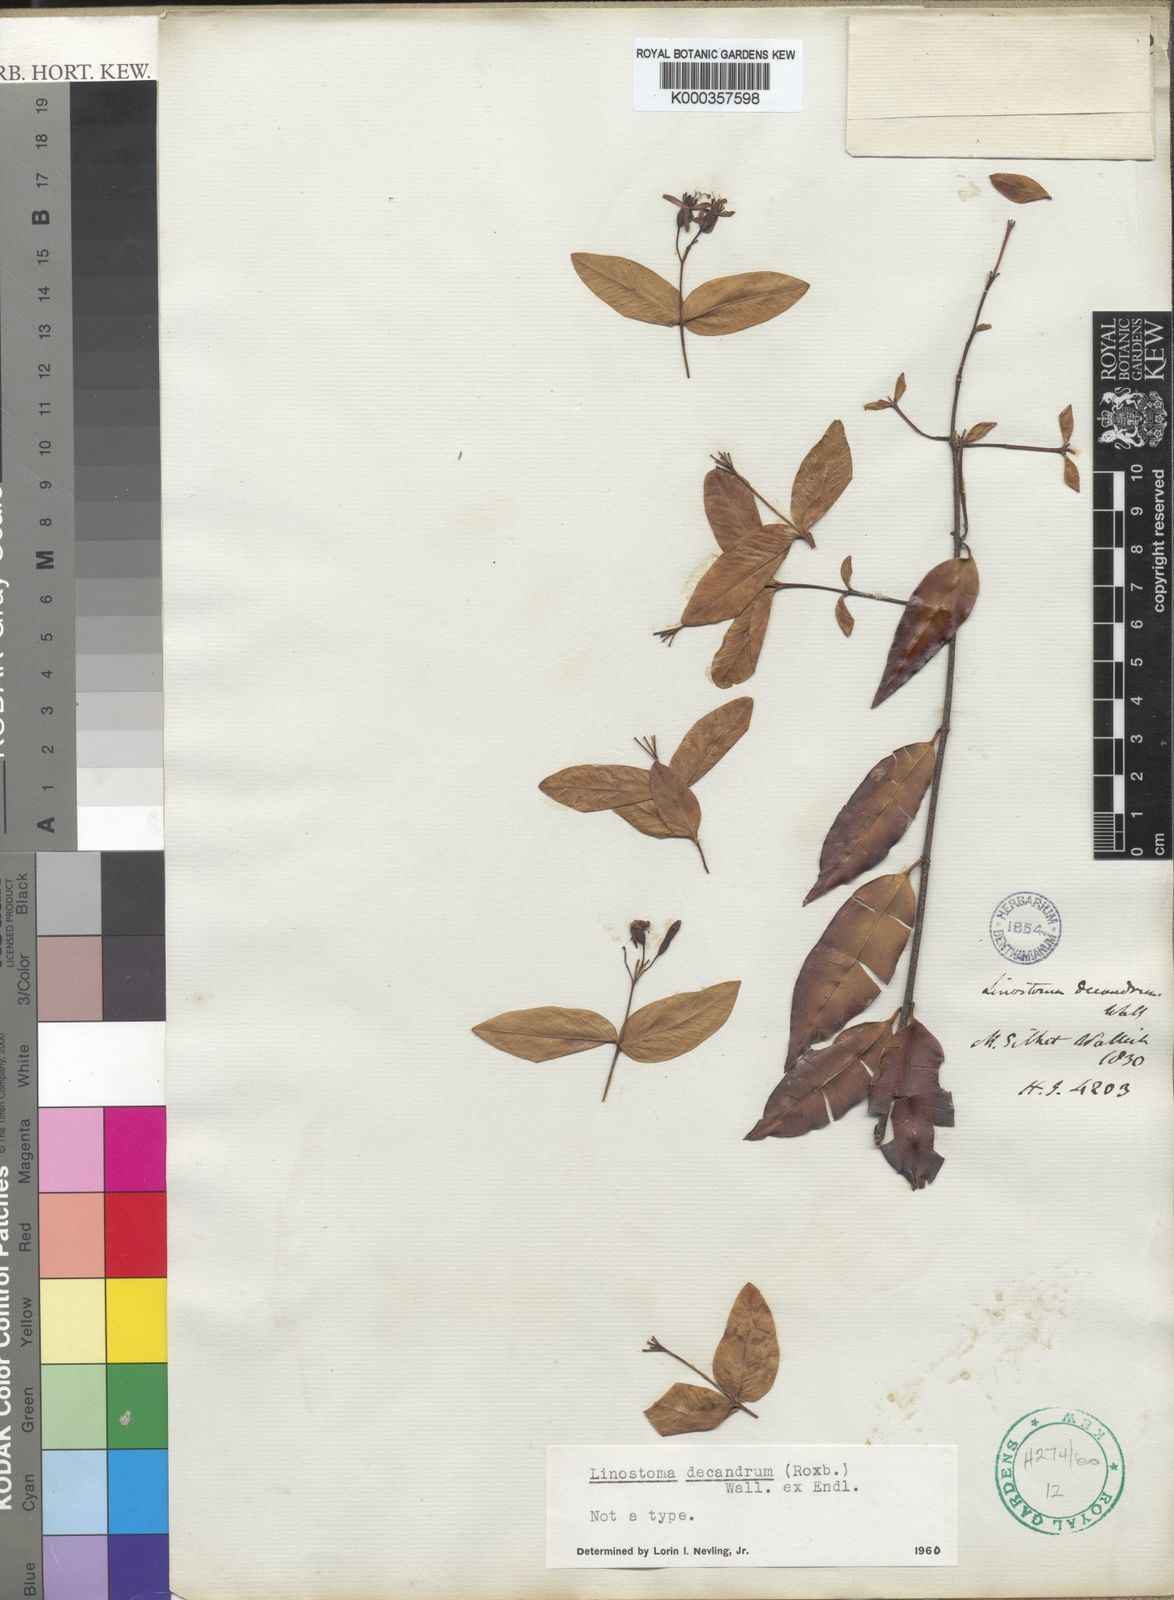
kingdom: Plantae
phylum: Tracheophyta
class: Magnoliopsida
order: Malvales
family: Thymelaeaceae
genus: Linostoma
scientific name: Linostoma decandrum
